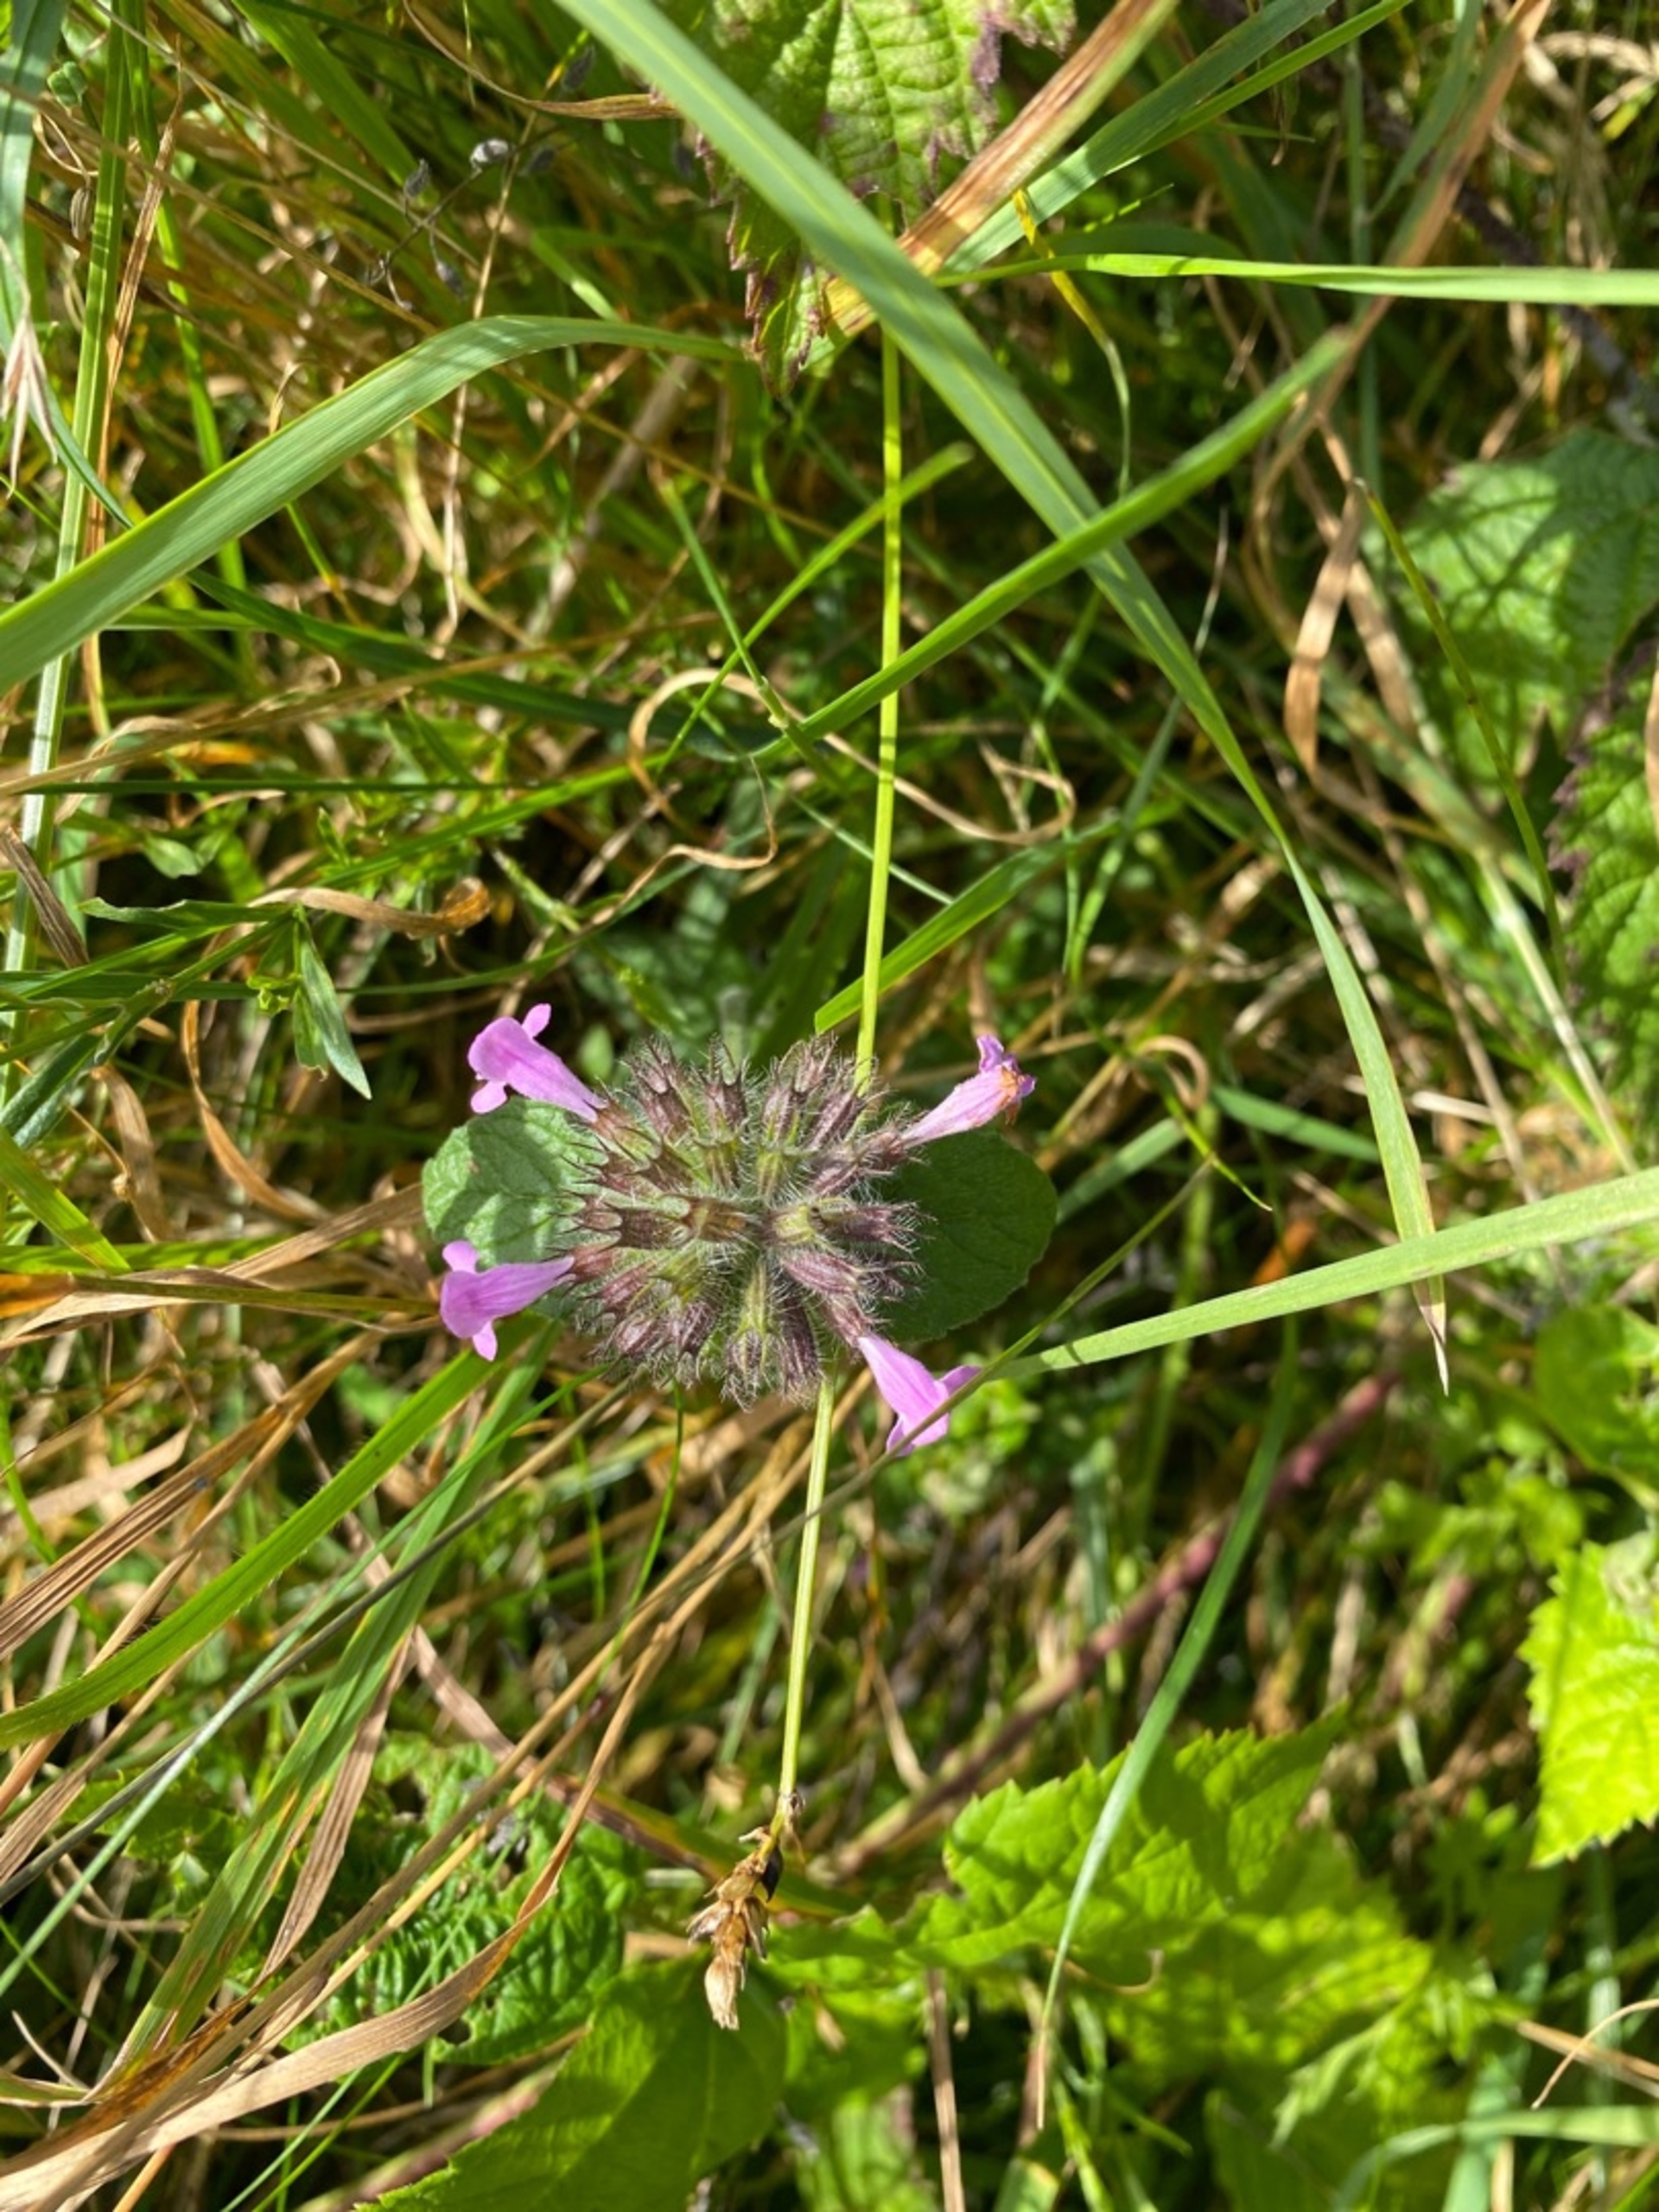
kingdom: Plantae
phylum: Tracheophyta
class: Magnoliopsida
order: Lamiales
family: Lamiaceae
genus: Clinopodium
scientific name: Clinopodium vulgare
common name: Kransbørste
